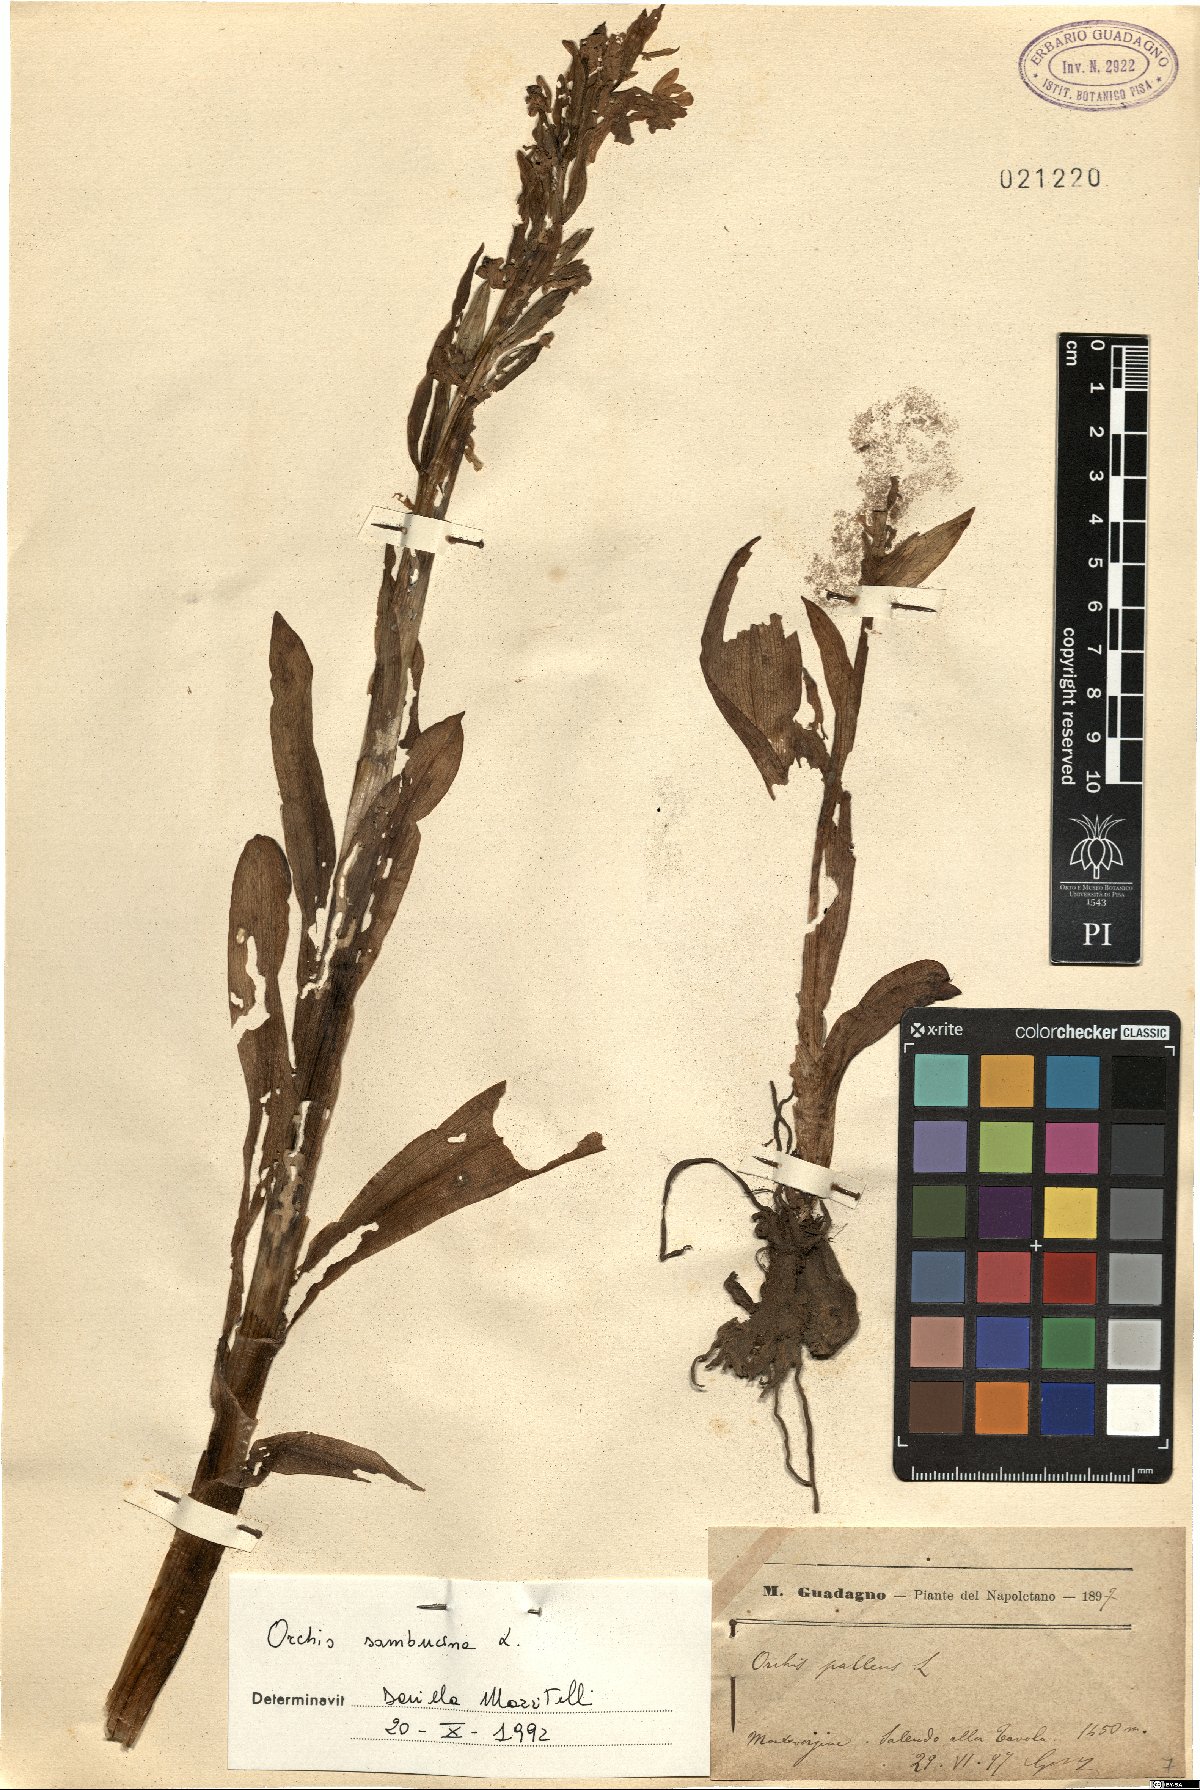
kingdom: Plantae
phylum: Tracheophyta
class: Liliopsida
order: Asparagales
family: Orchidaceae
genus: Dactylorhiza
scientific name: Dactylorhiza sambucina
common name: Elder-flowered orchid
